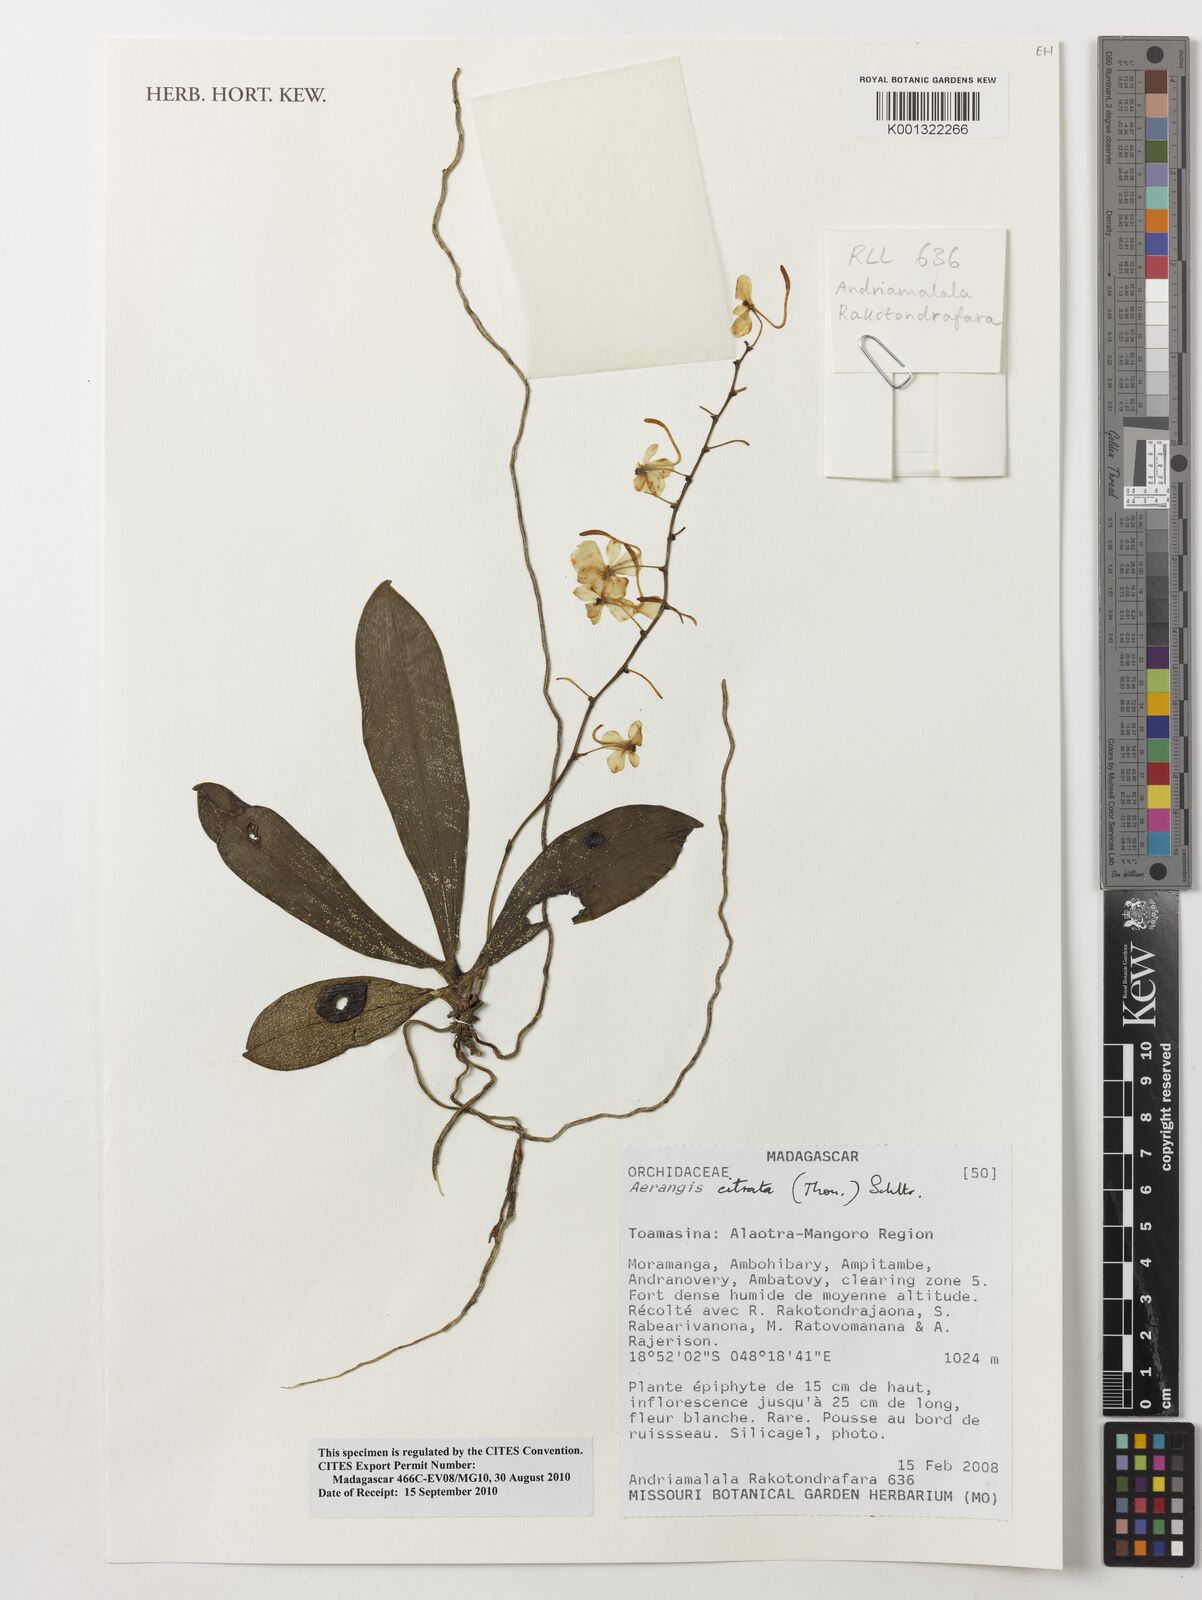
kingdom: Plantae
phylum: Tracheophyta
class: Liliopsida
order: Asparagales
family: Orchidaceae
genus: Aerangis
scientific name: Aerangis citrata
